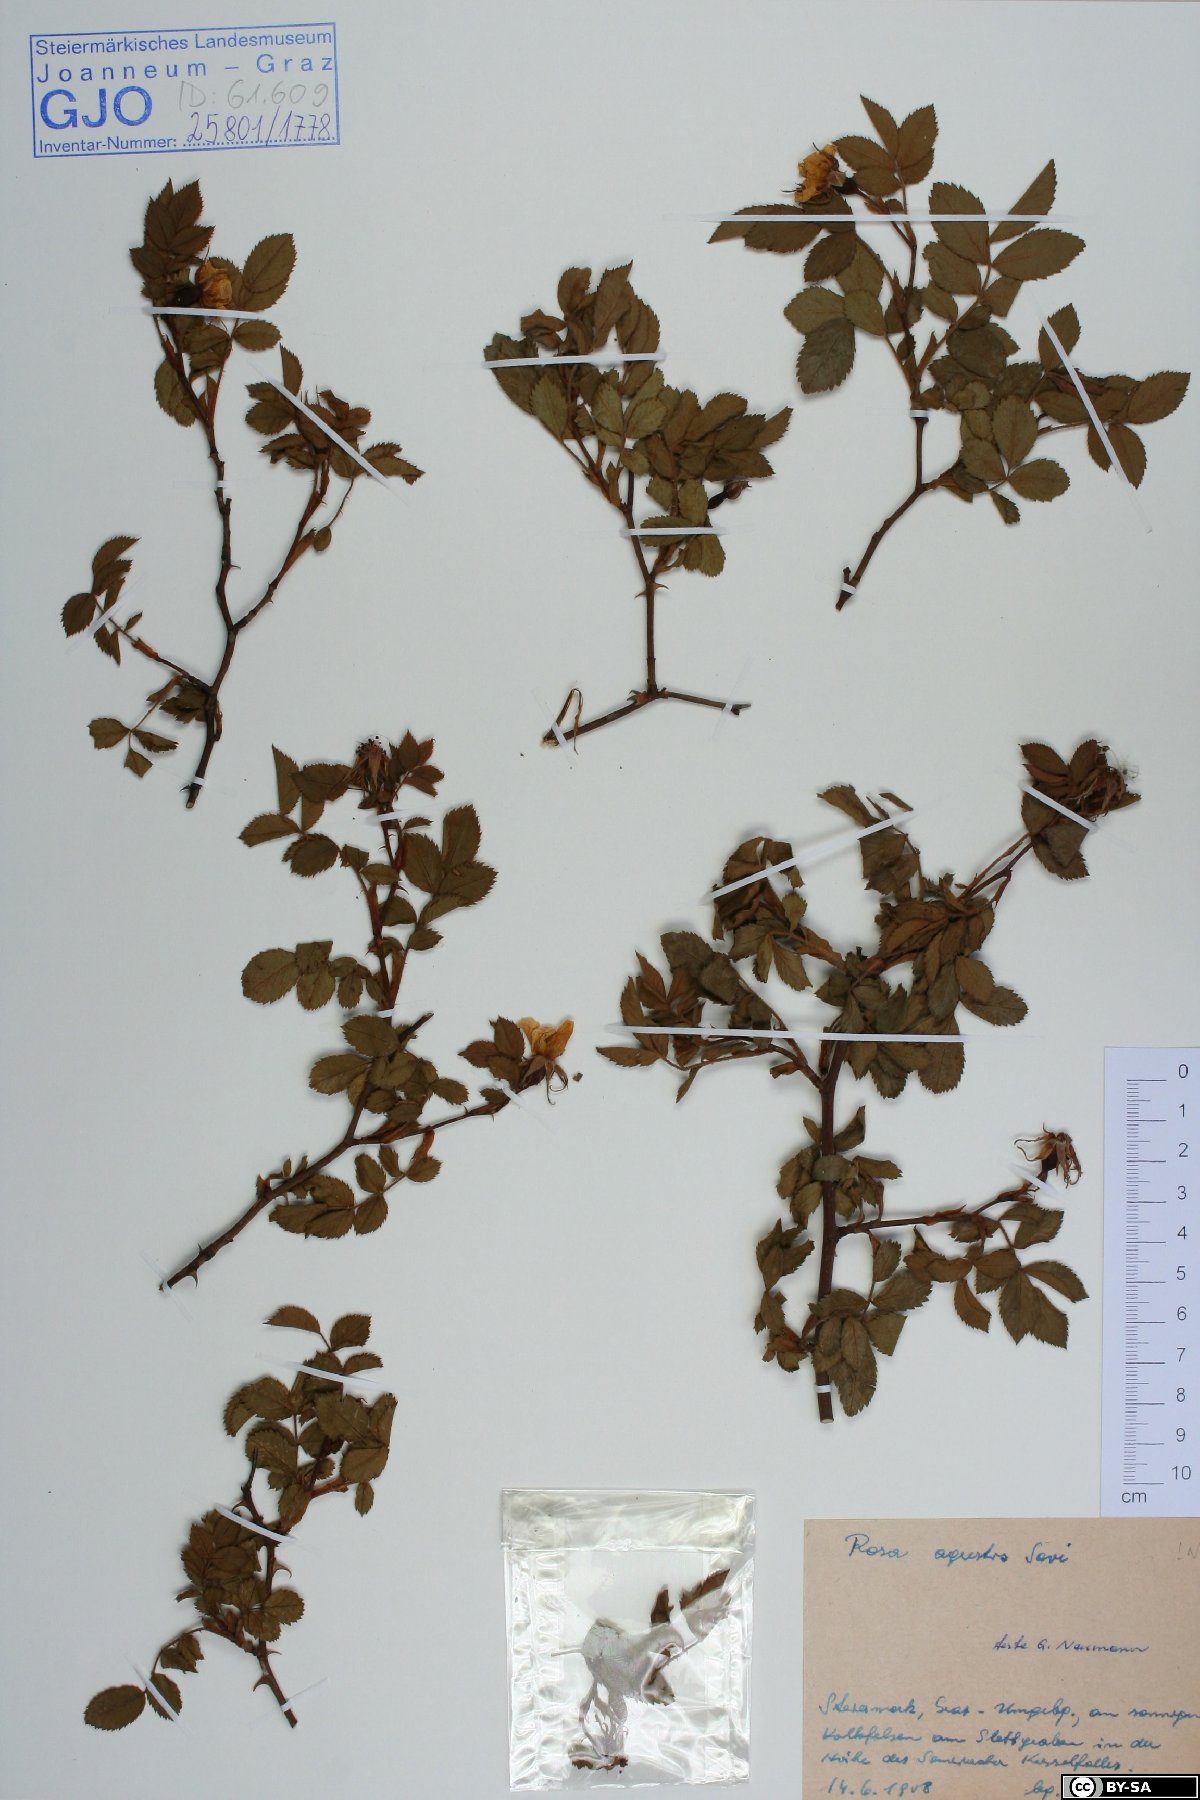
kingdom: Plantae
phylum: Tracheophyta
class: Magnoliopsida
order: Rosales
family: Rosaceae
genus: Rosa
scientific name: Rosa agrestis
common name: Fieldbriar
